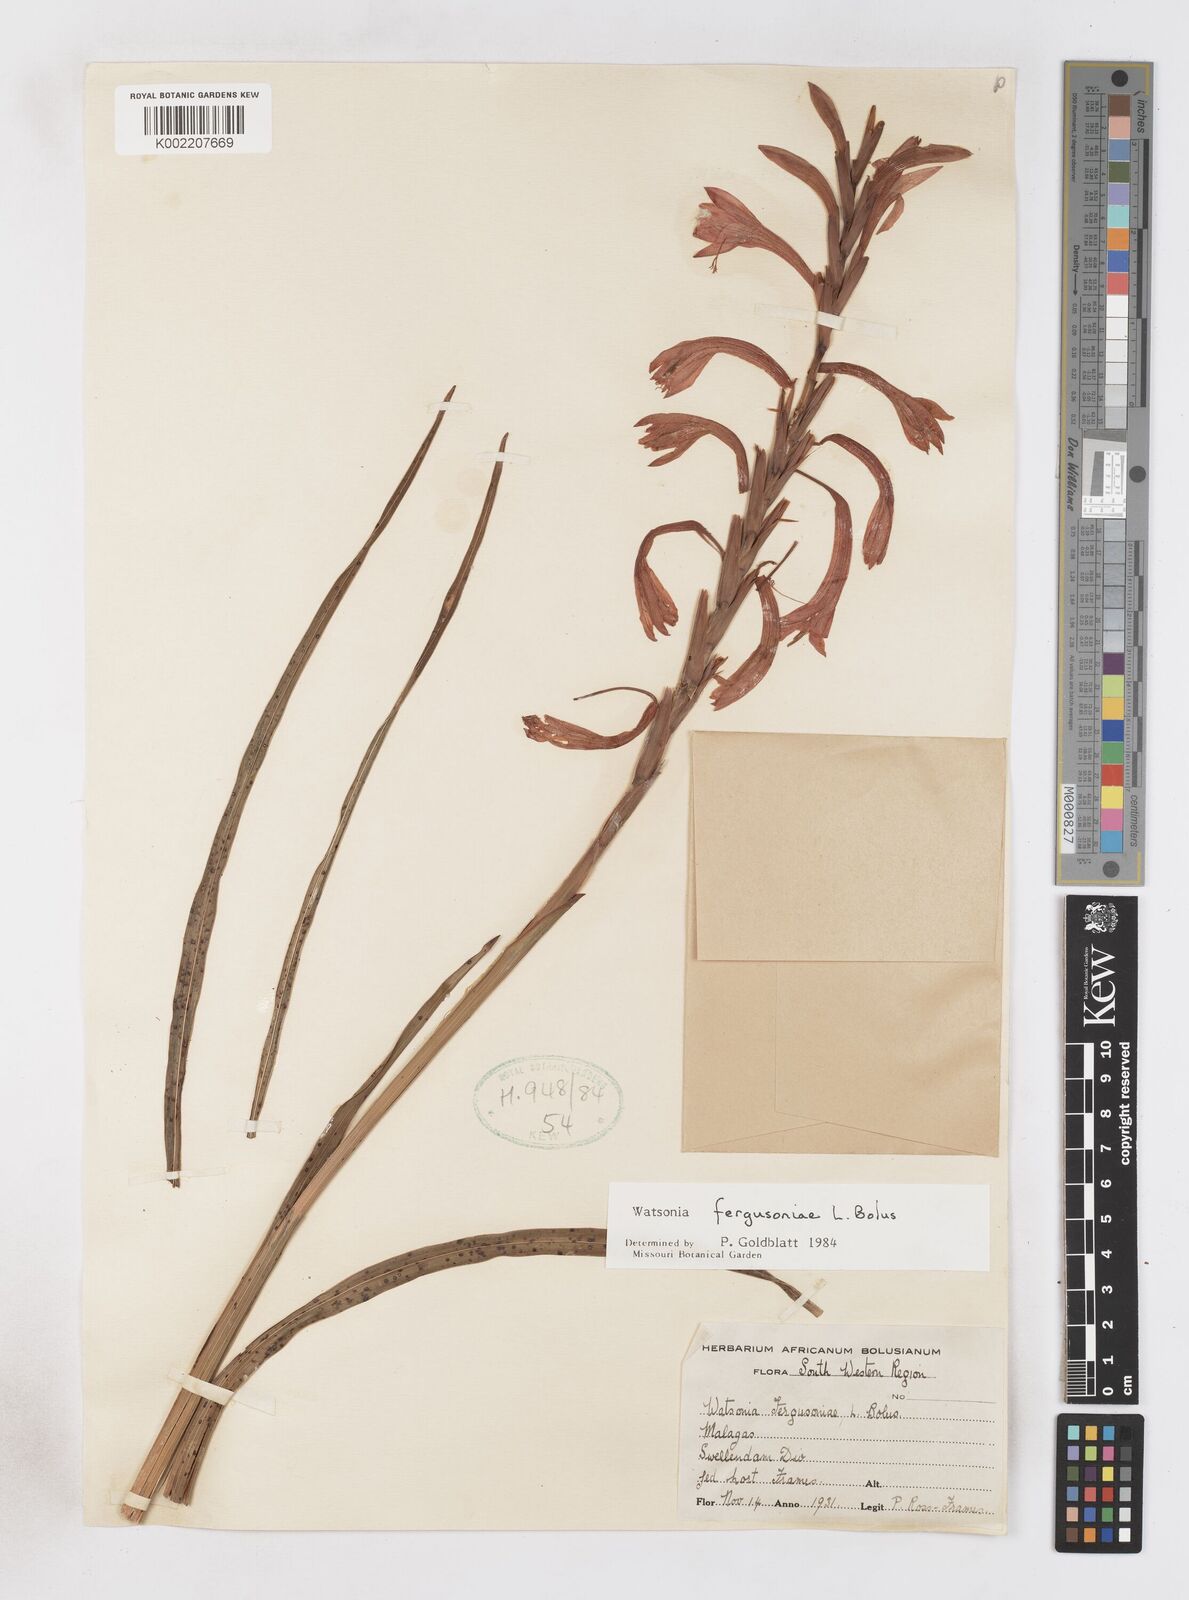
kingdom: Plantae
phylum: Tracheophyta
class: Liliopsida
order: Asparagales
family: Iridaceae
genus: Watsonia
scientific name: Watsonia fergusoniae
